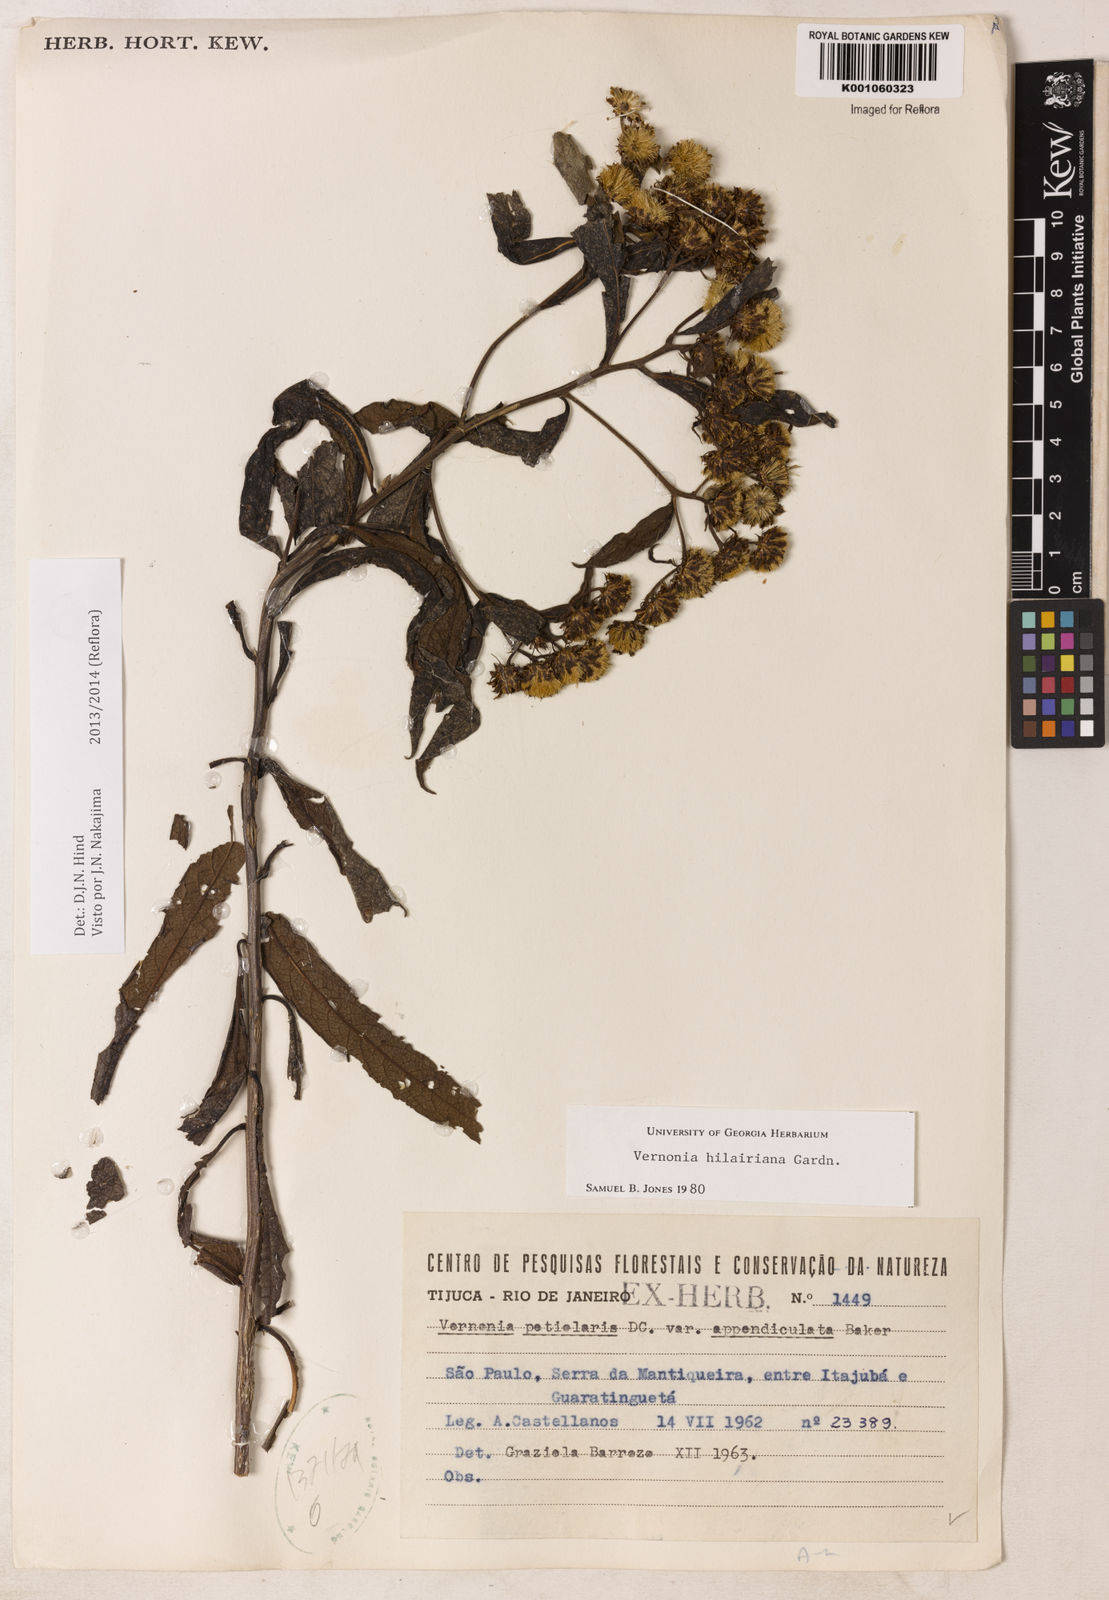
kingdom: Plantae
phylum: Tracheophyta
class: Magnoliopsida
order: Asterales
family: Asteraceae
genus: Vernonanthura
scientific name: Vernonanthura petiolaris
